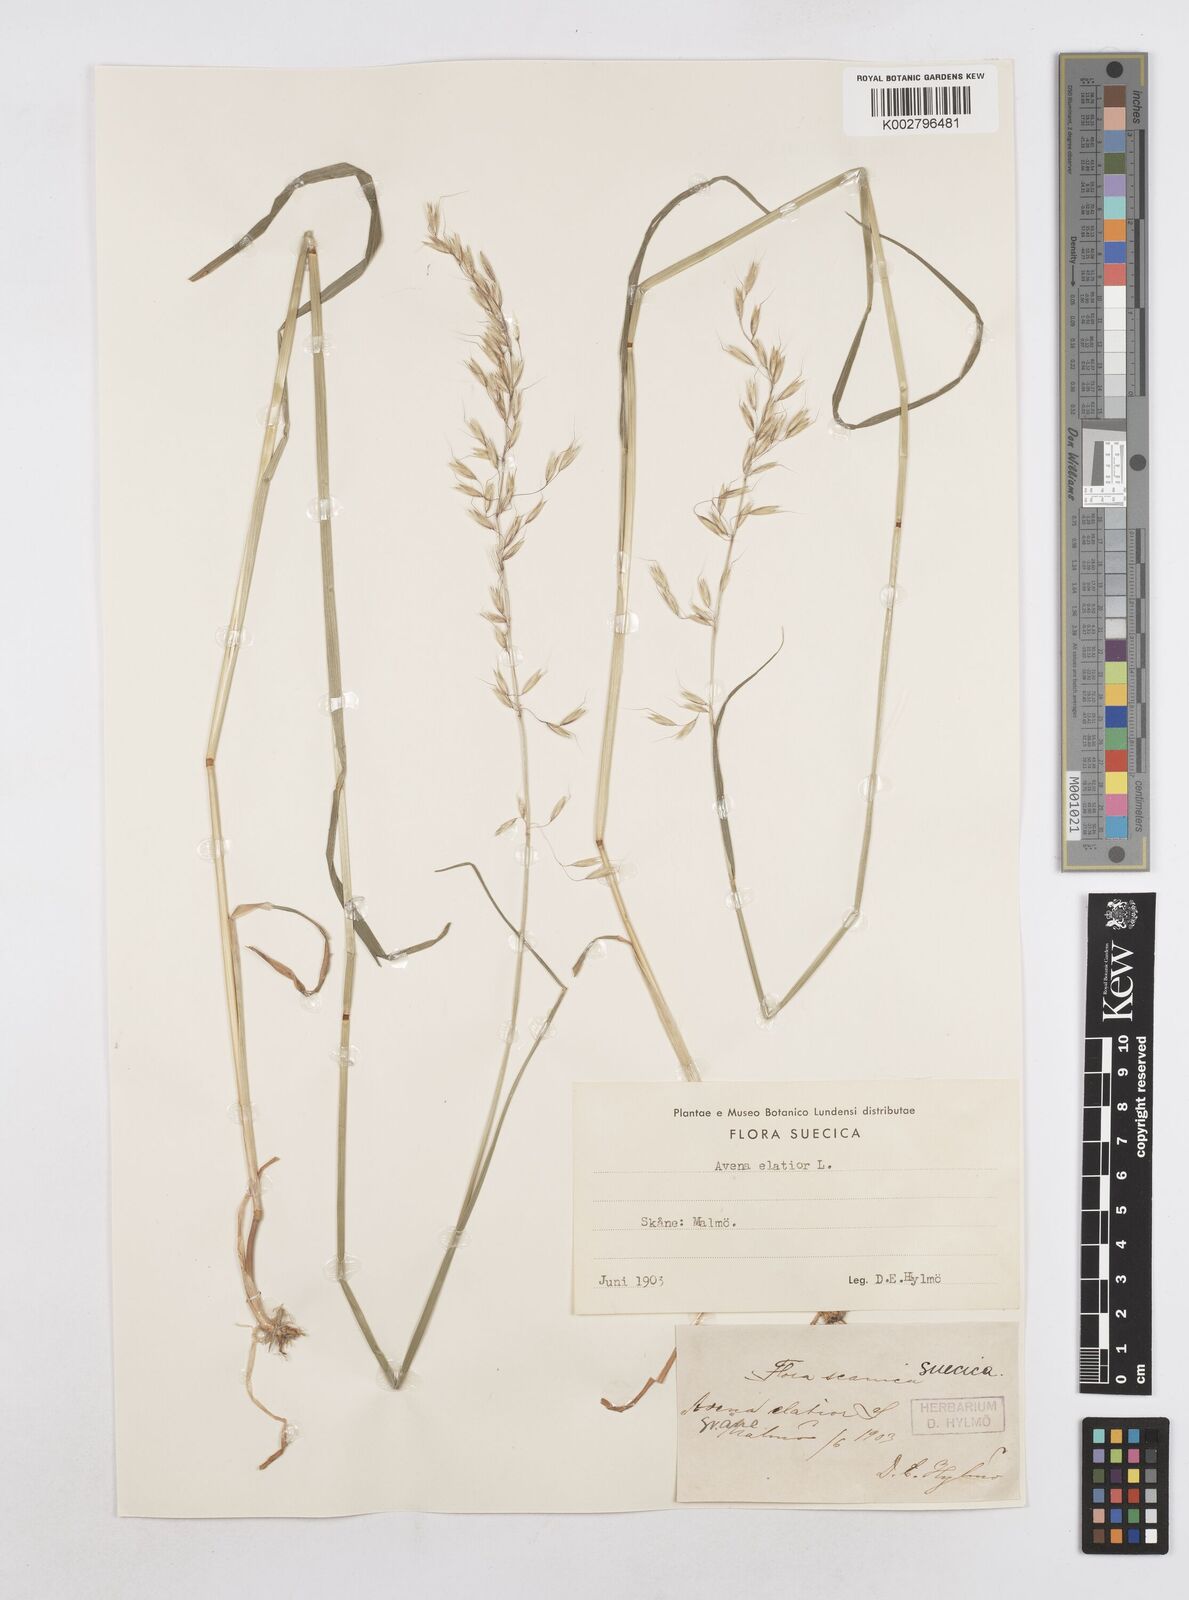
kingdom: Plantae
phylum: Tracheophyta
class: Liliopsida
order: Poales
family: Poaceae
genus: Arrhenatherum
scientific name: Arrhenatherum elatius
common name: Tall oatgrass
